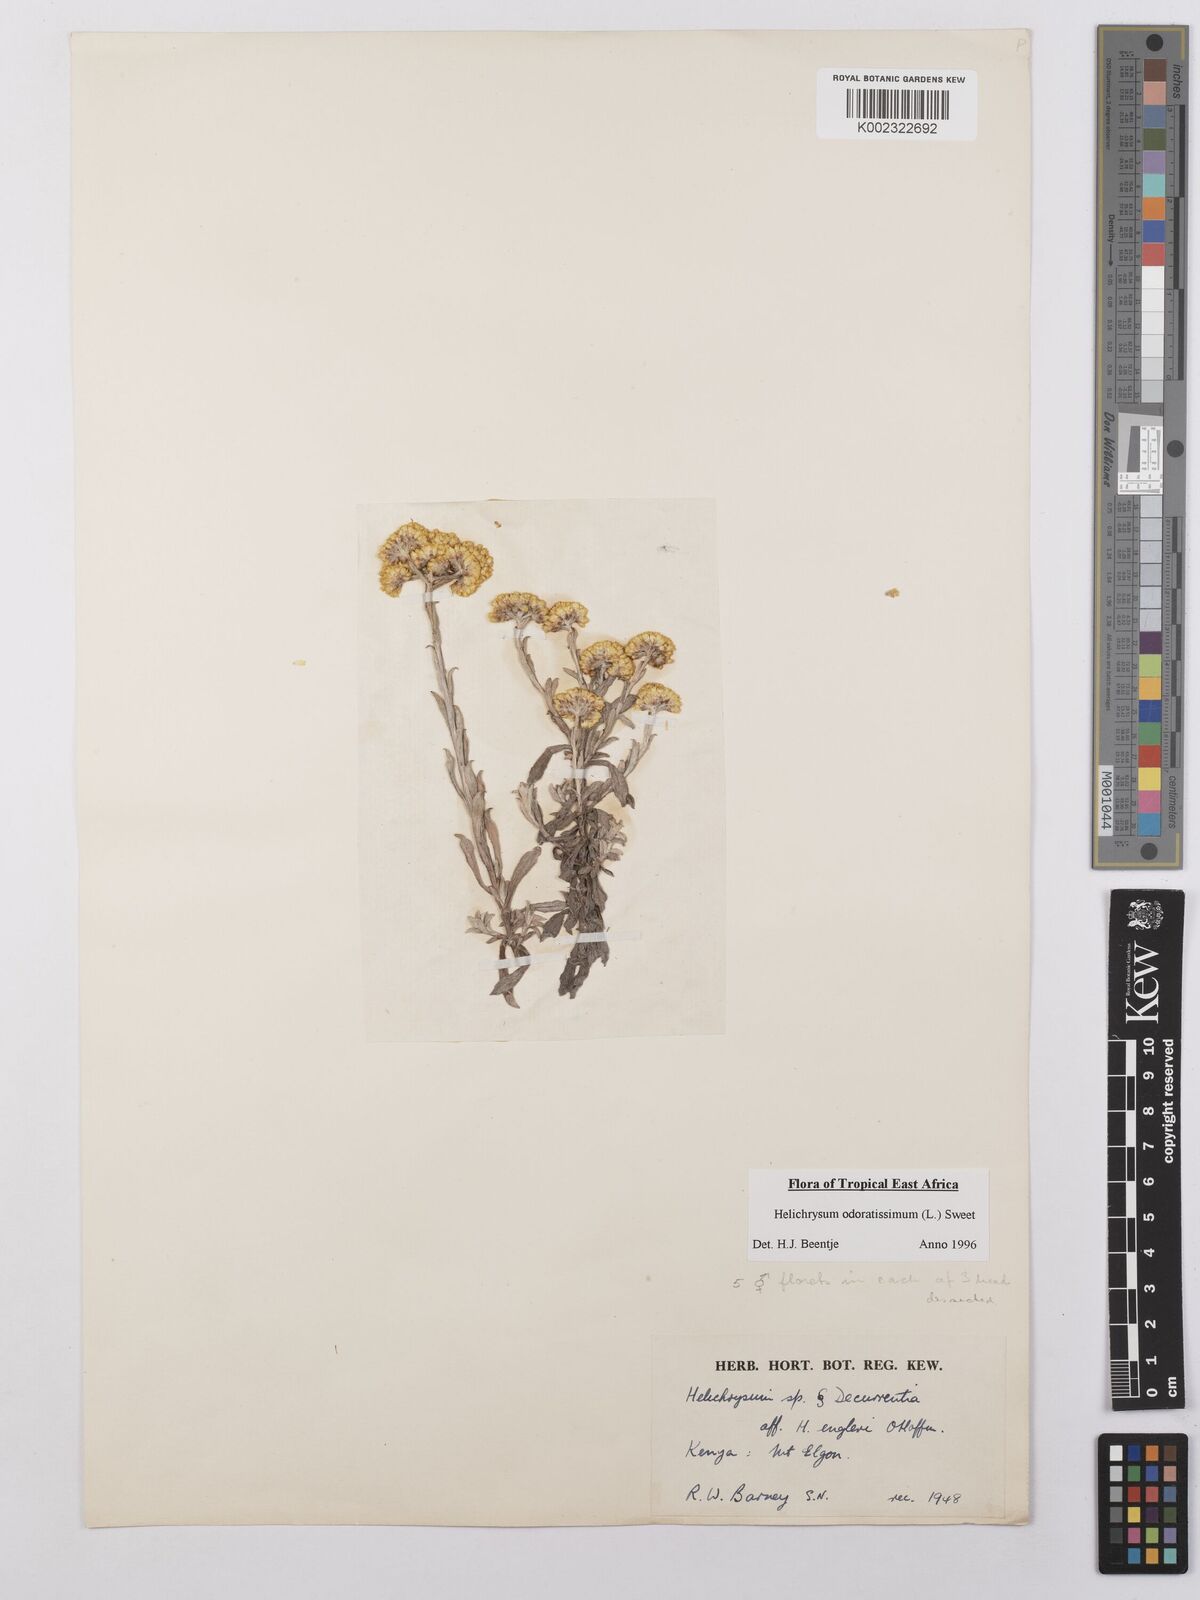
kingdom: Plantae
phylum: Tracheophyta
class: Magnoliopsida
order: Asterales
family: Asteraceae
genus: Helichrysum
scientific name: Helichrysum odoratissimum
